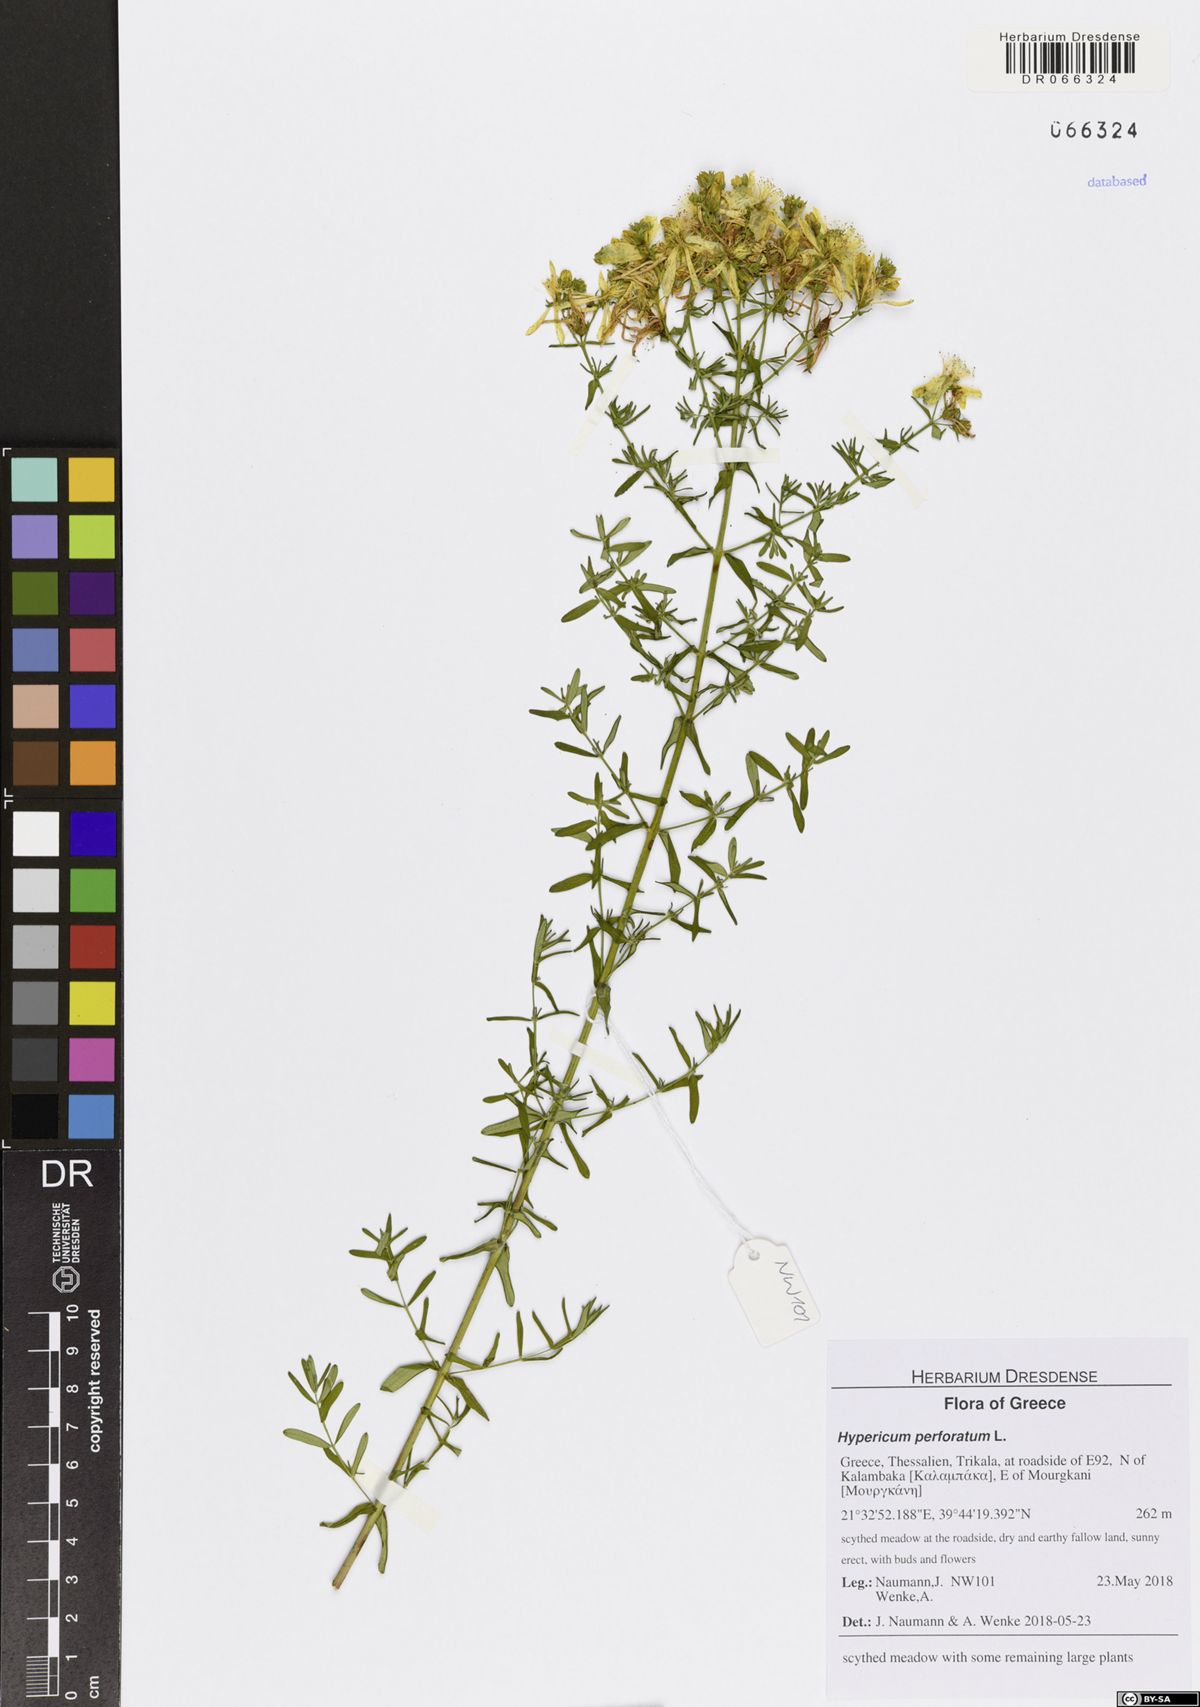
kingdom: Plantae
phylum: Tracheophyta
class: Magnoliopsida
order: Malpighiales
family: Hypericaceae
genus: Hypericum
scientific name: Hypericum perforatum
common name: Common st. johnswort
